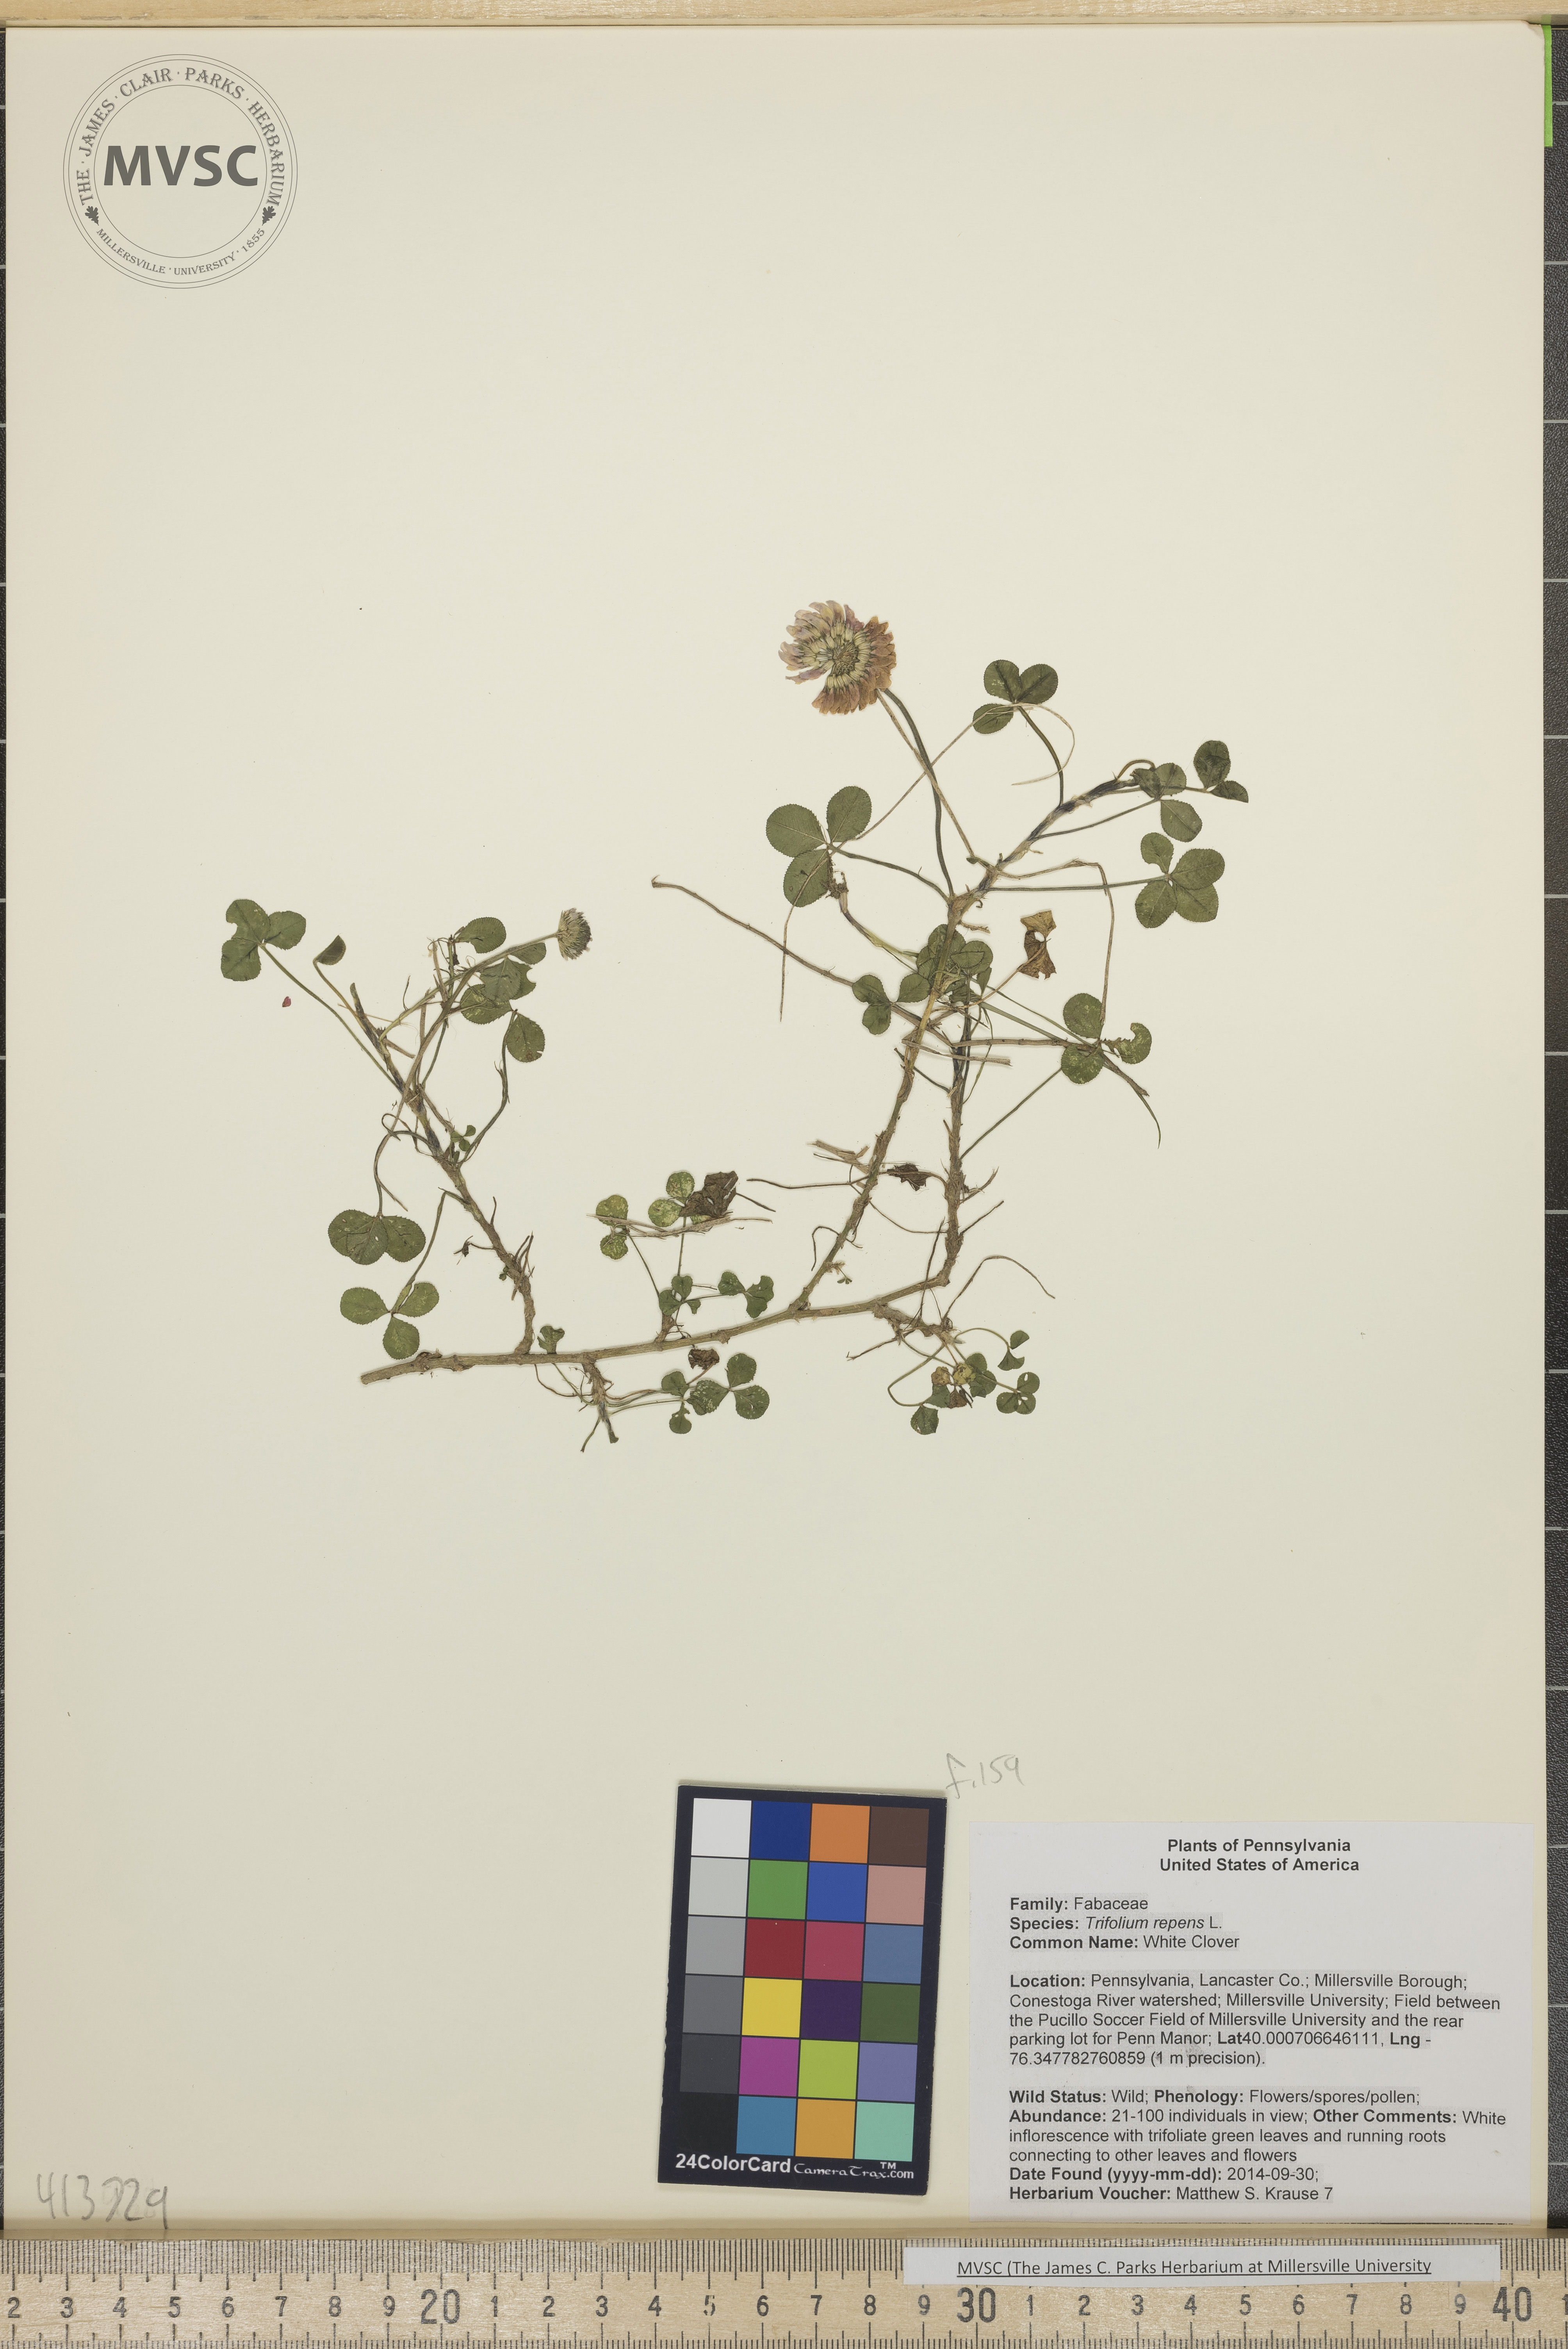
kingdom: Plantae
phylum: Tracheophyta
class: Magnoliopsida
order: Fabales
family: Fabaceae
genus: Trifolium
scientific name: Trifolium repens
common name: White Clover
